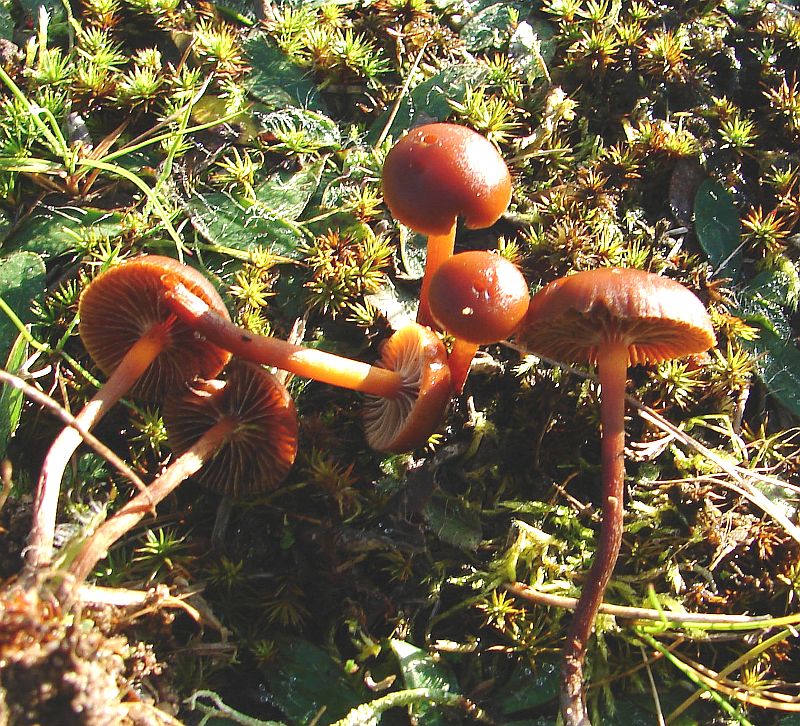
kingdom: Fungi
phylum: Basidiomycota
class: Agaricomycetes
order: Agaricales
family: Strophariaceae
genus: Deconica
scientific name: Deconica montana
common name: rødbrun stråhat
